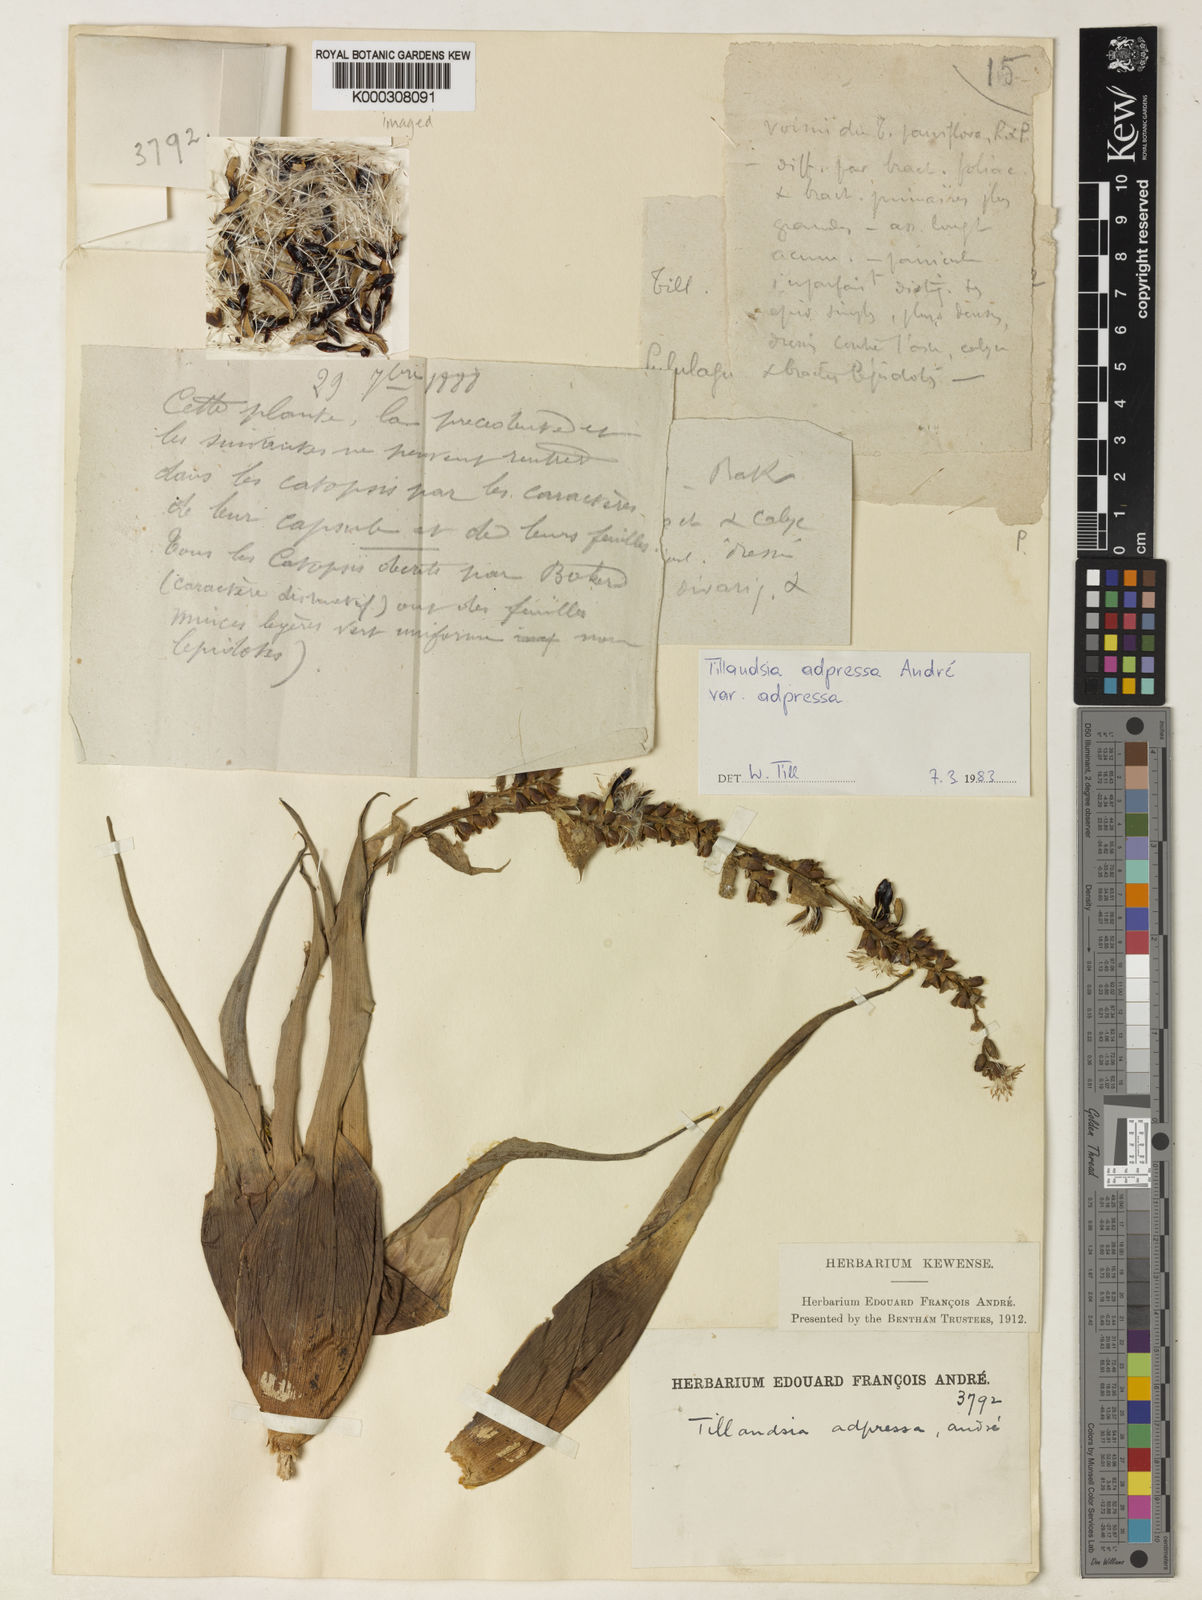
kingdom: Plantae
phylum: Tracheophyta
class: Liliopsida
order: Poales
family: Bromeliaceae
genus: Tillandsia
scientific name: Tillandsia
